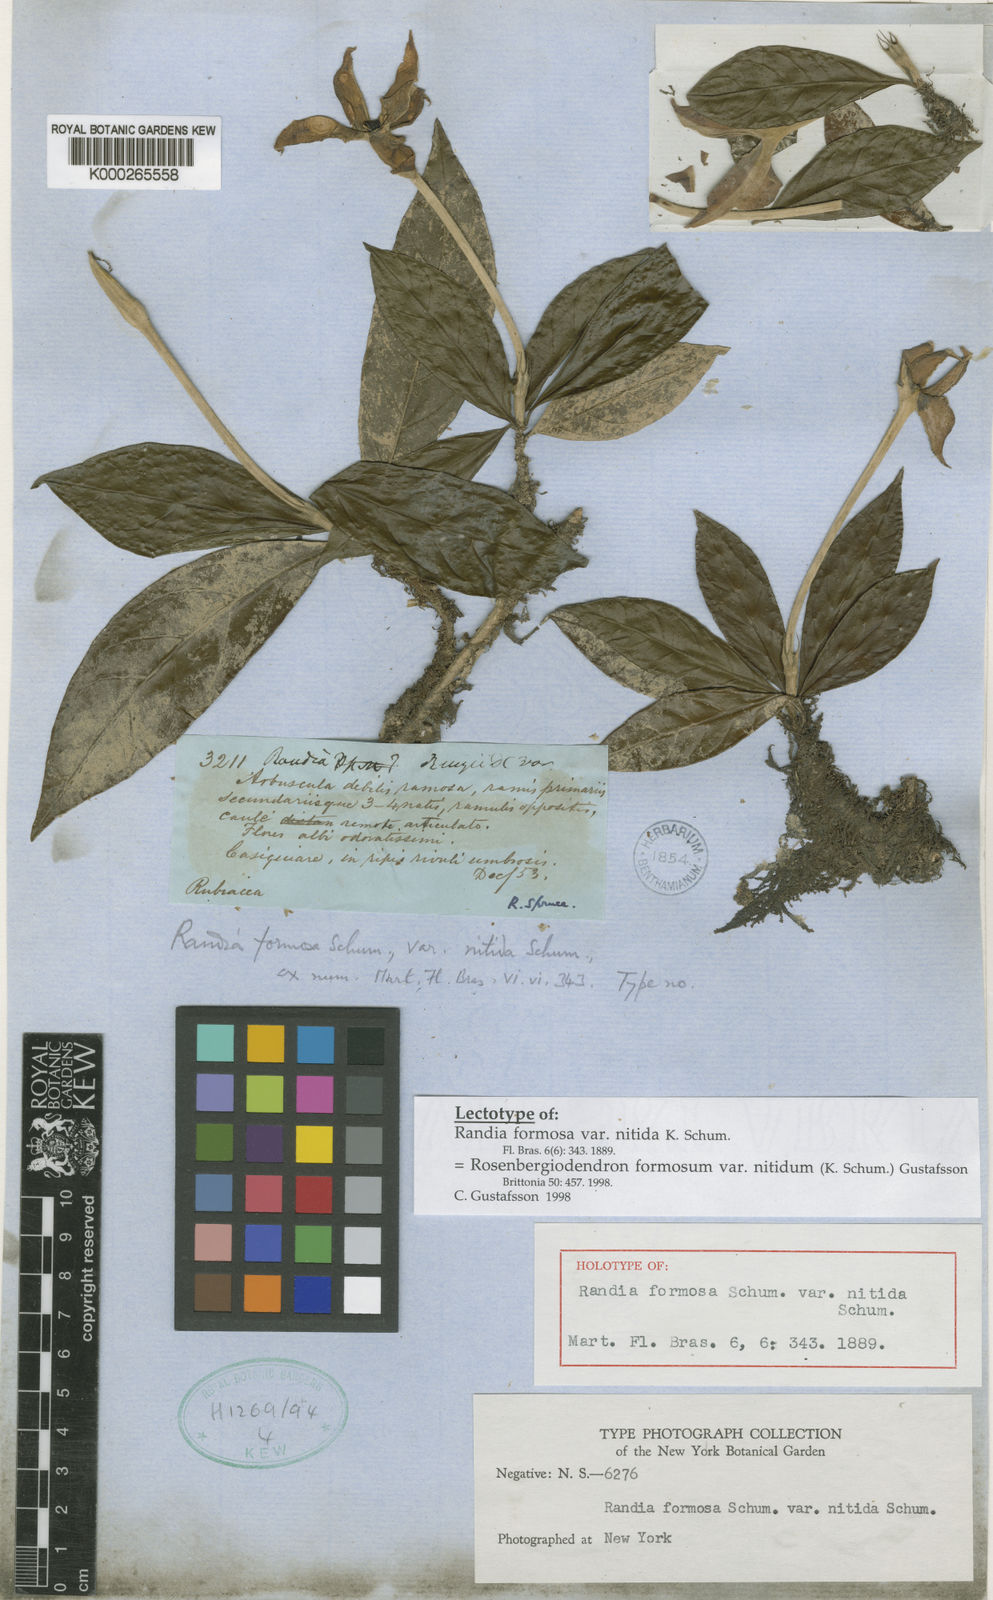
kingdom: Plantae
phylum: Tracheophyta
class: Magnoliopsida
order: Gentianales
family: Rubiaceae
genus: Rosenbergiodendron
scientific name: Rosenbergiodendron formosum
